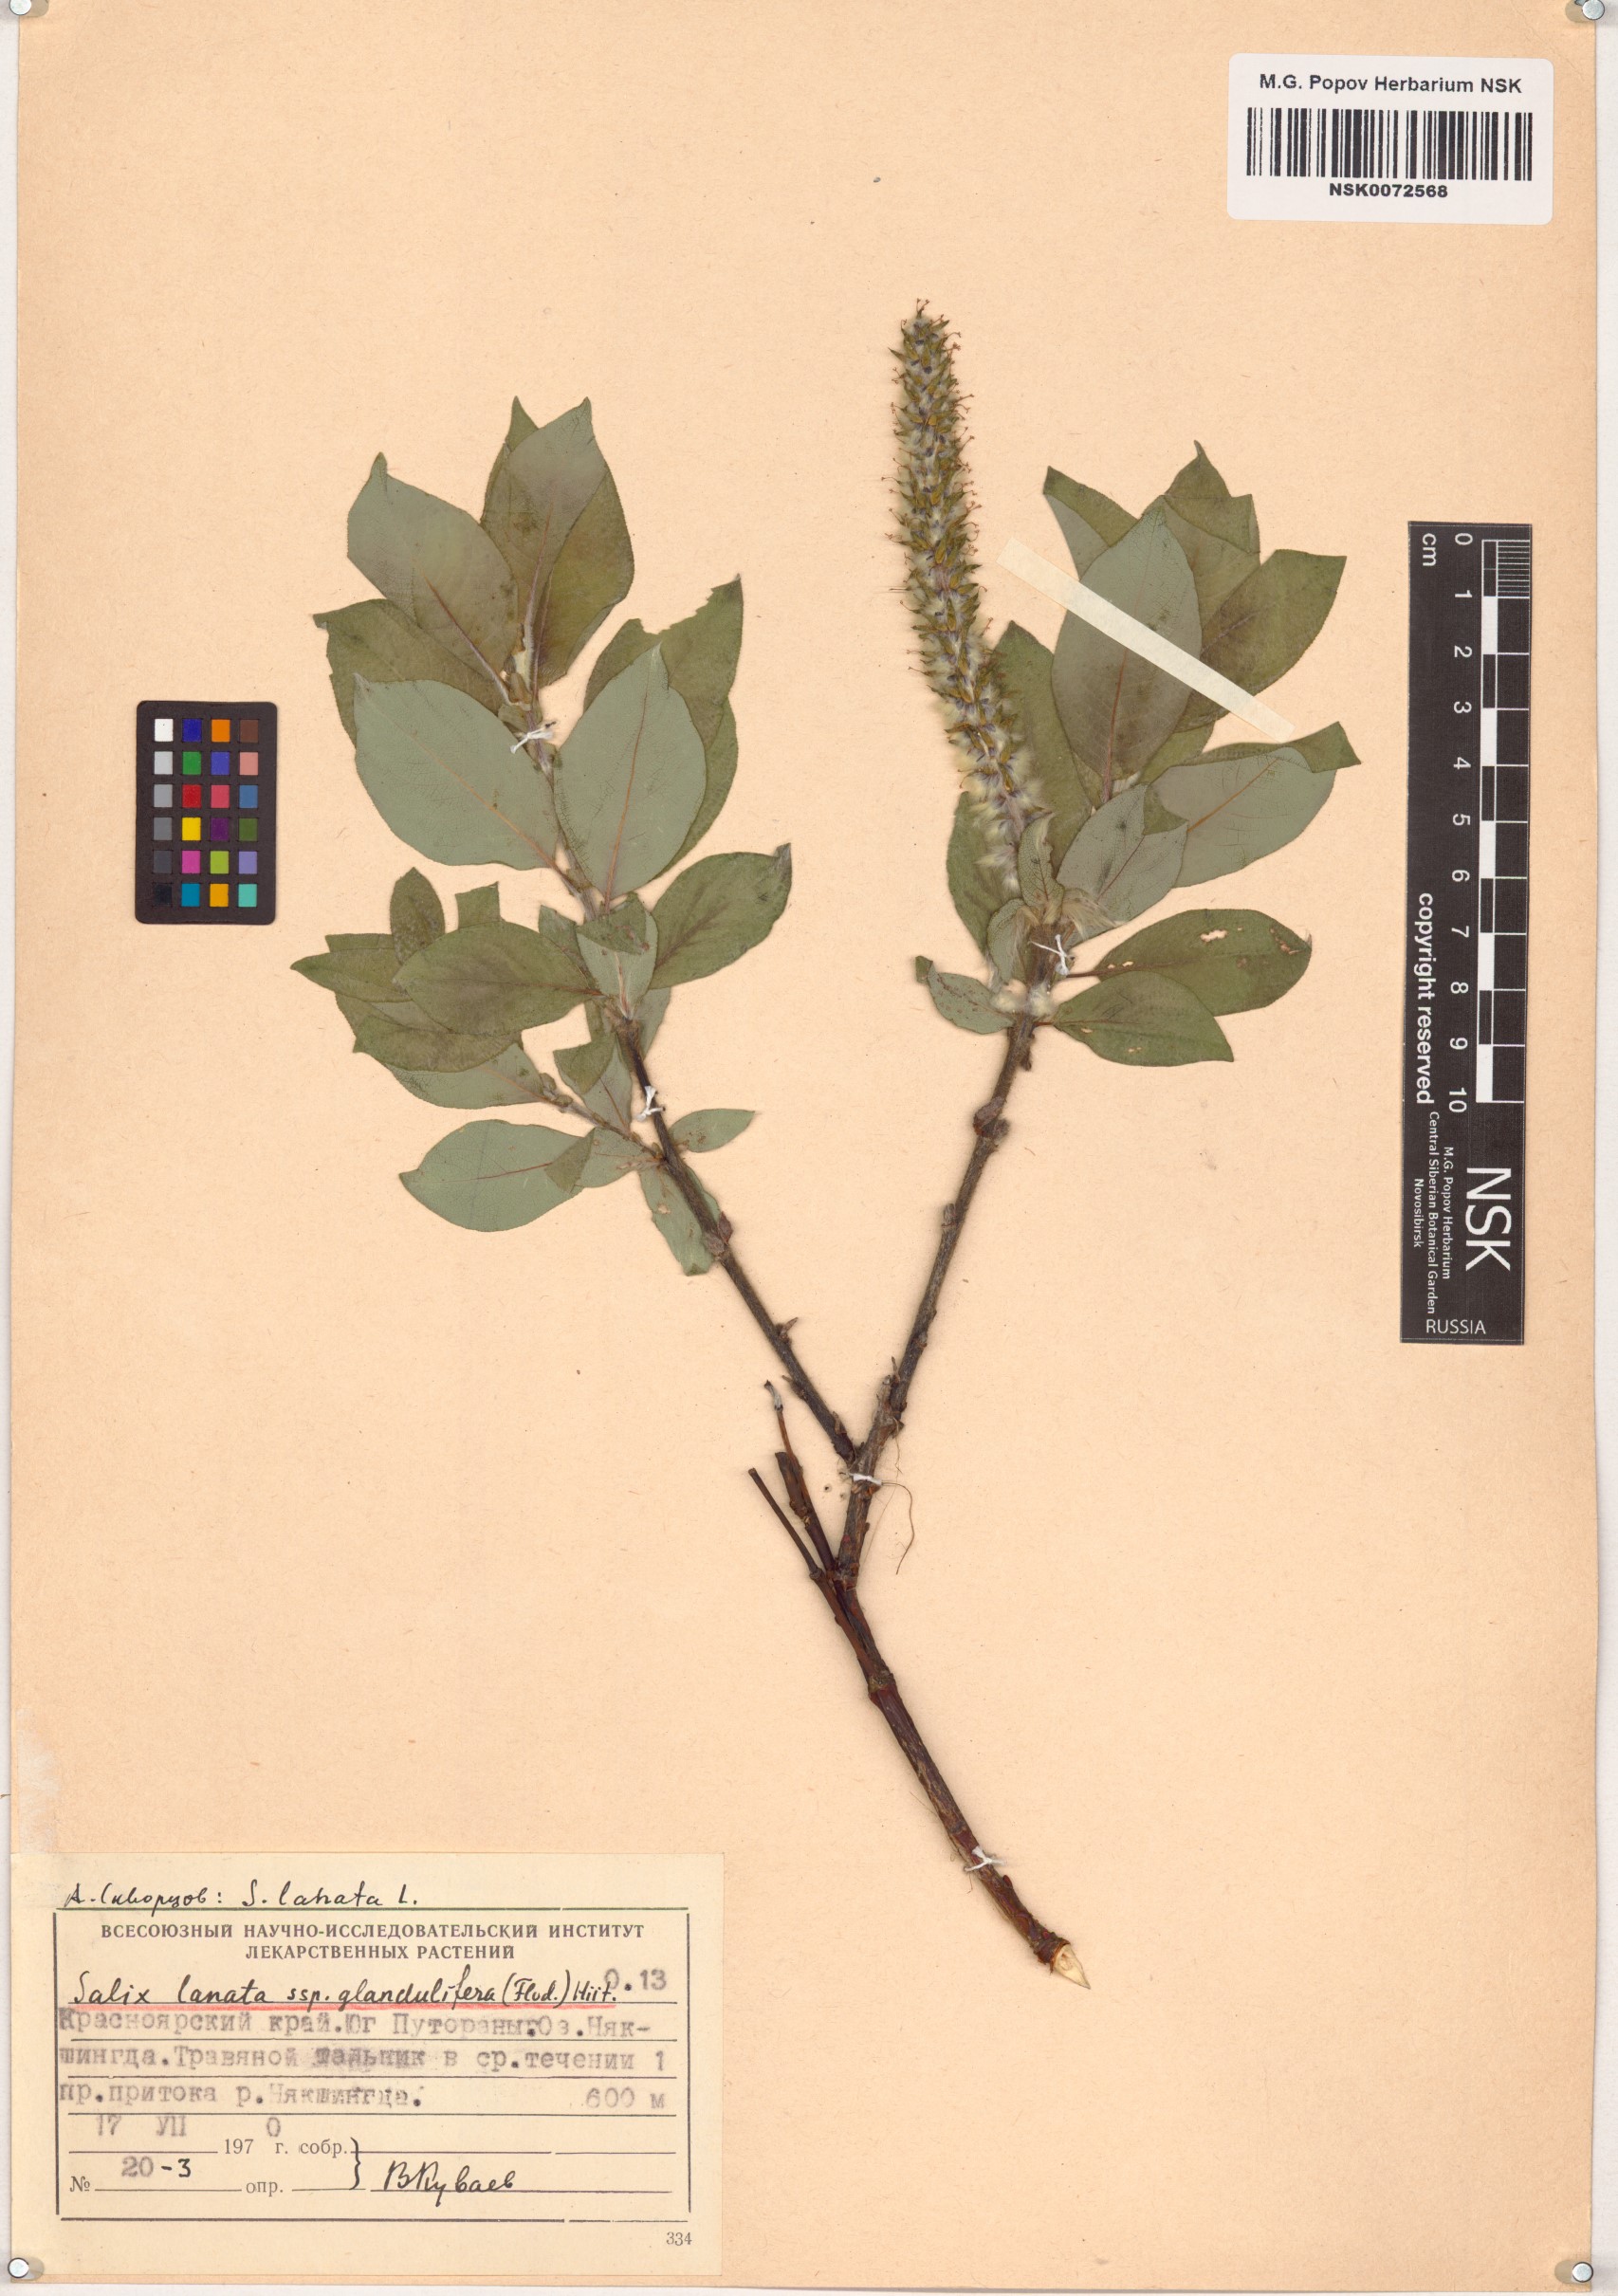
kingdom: Plantae
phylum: Tracheophyta
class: Magnoliopsida
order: Malpighiales
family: Salicaceae
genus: Salix
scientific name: Salix lanata
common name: Woolly willow
